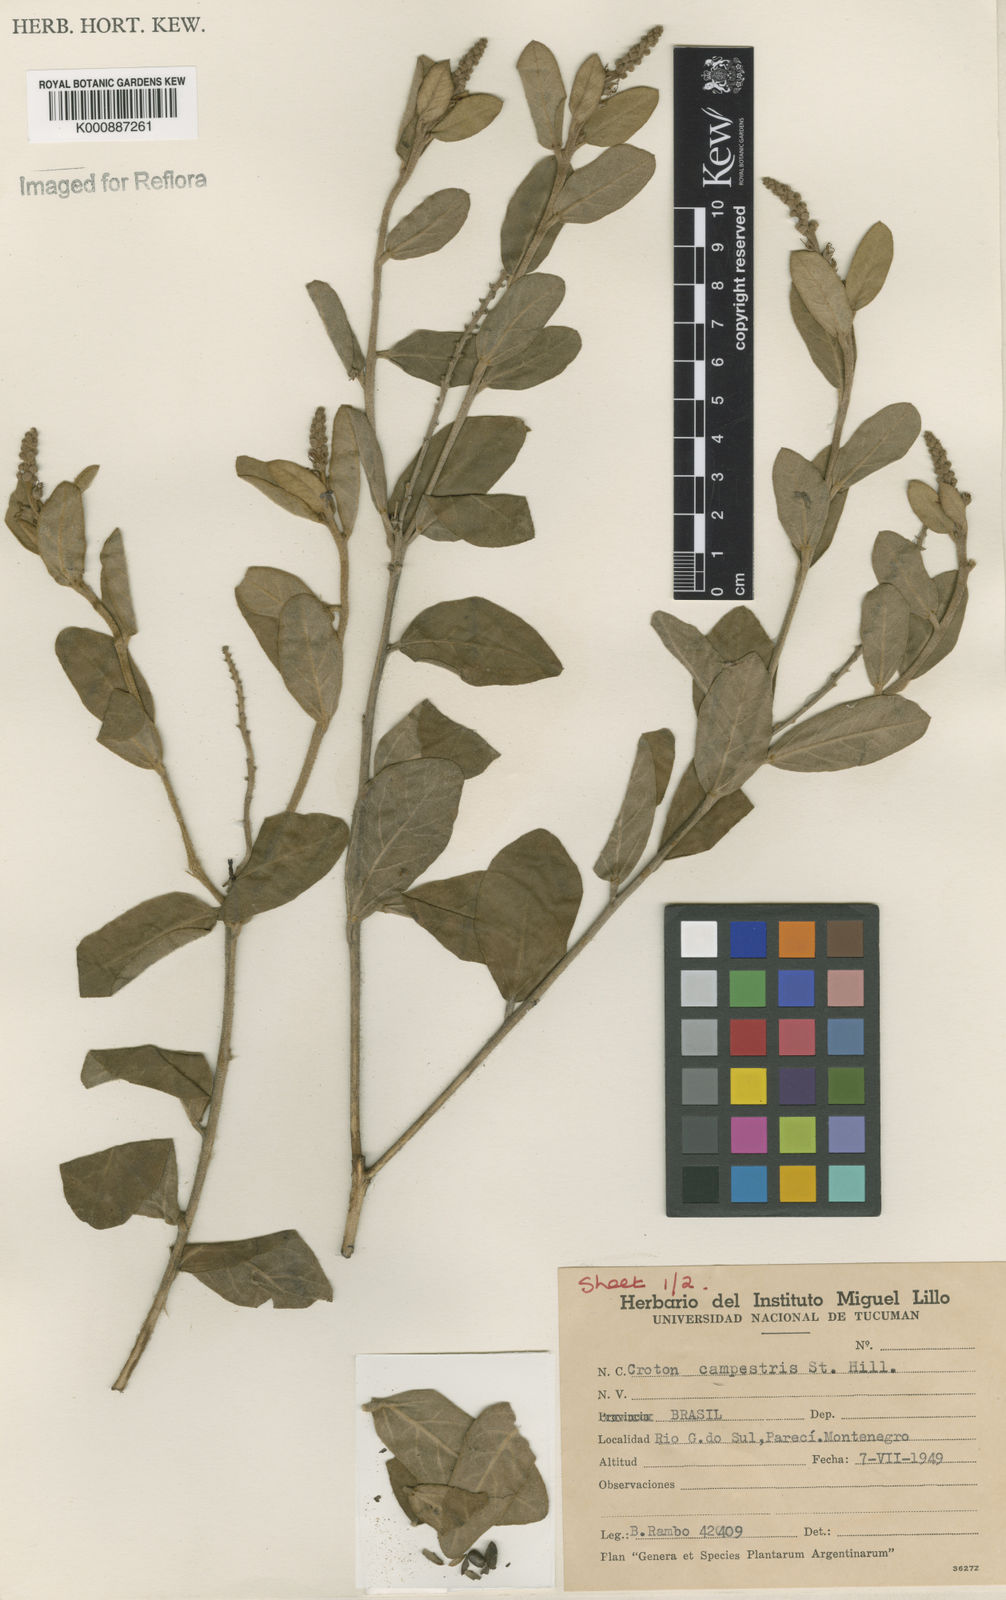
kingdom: Plantae
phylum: Tracheophyta
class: Magnoliopsida
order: Malpighiales
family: Euphorbiaceae
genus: Croton
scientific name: Croton campestris
